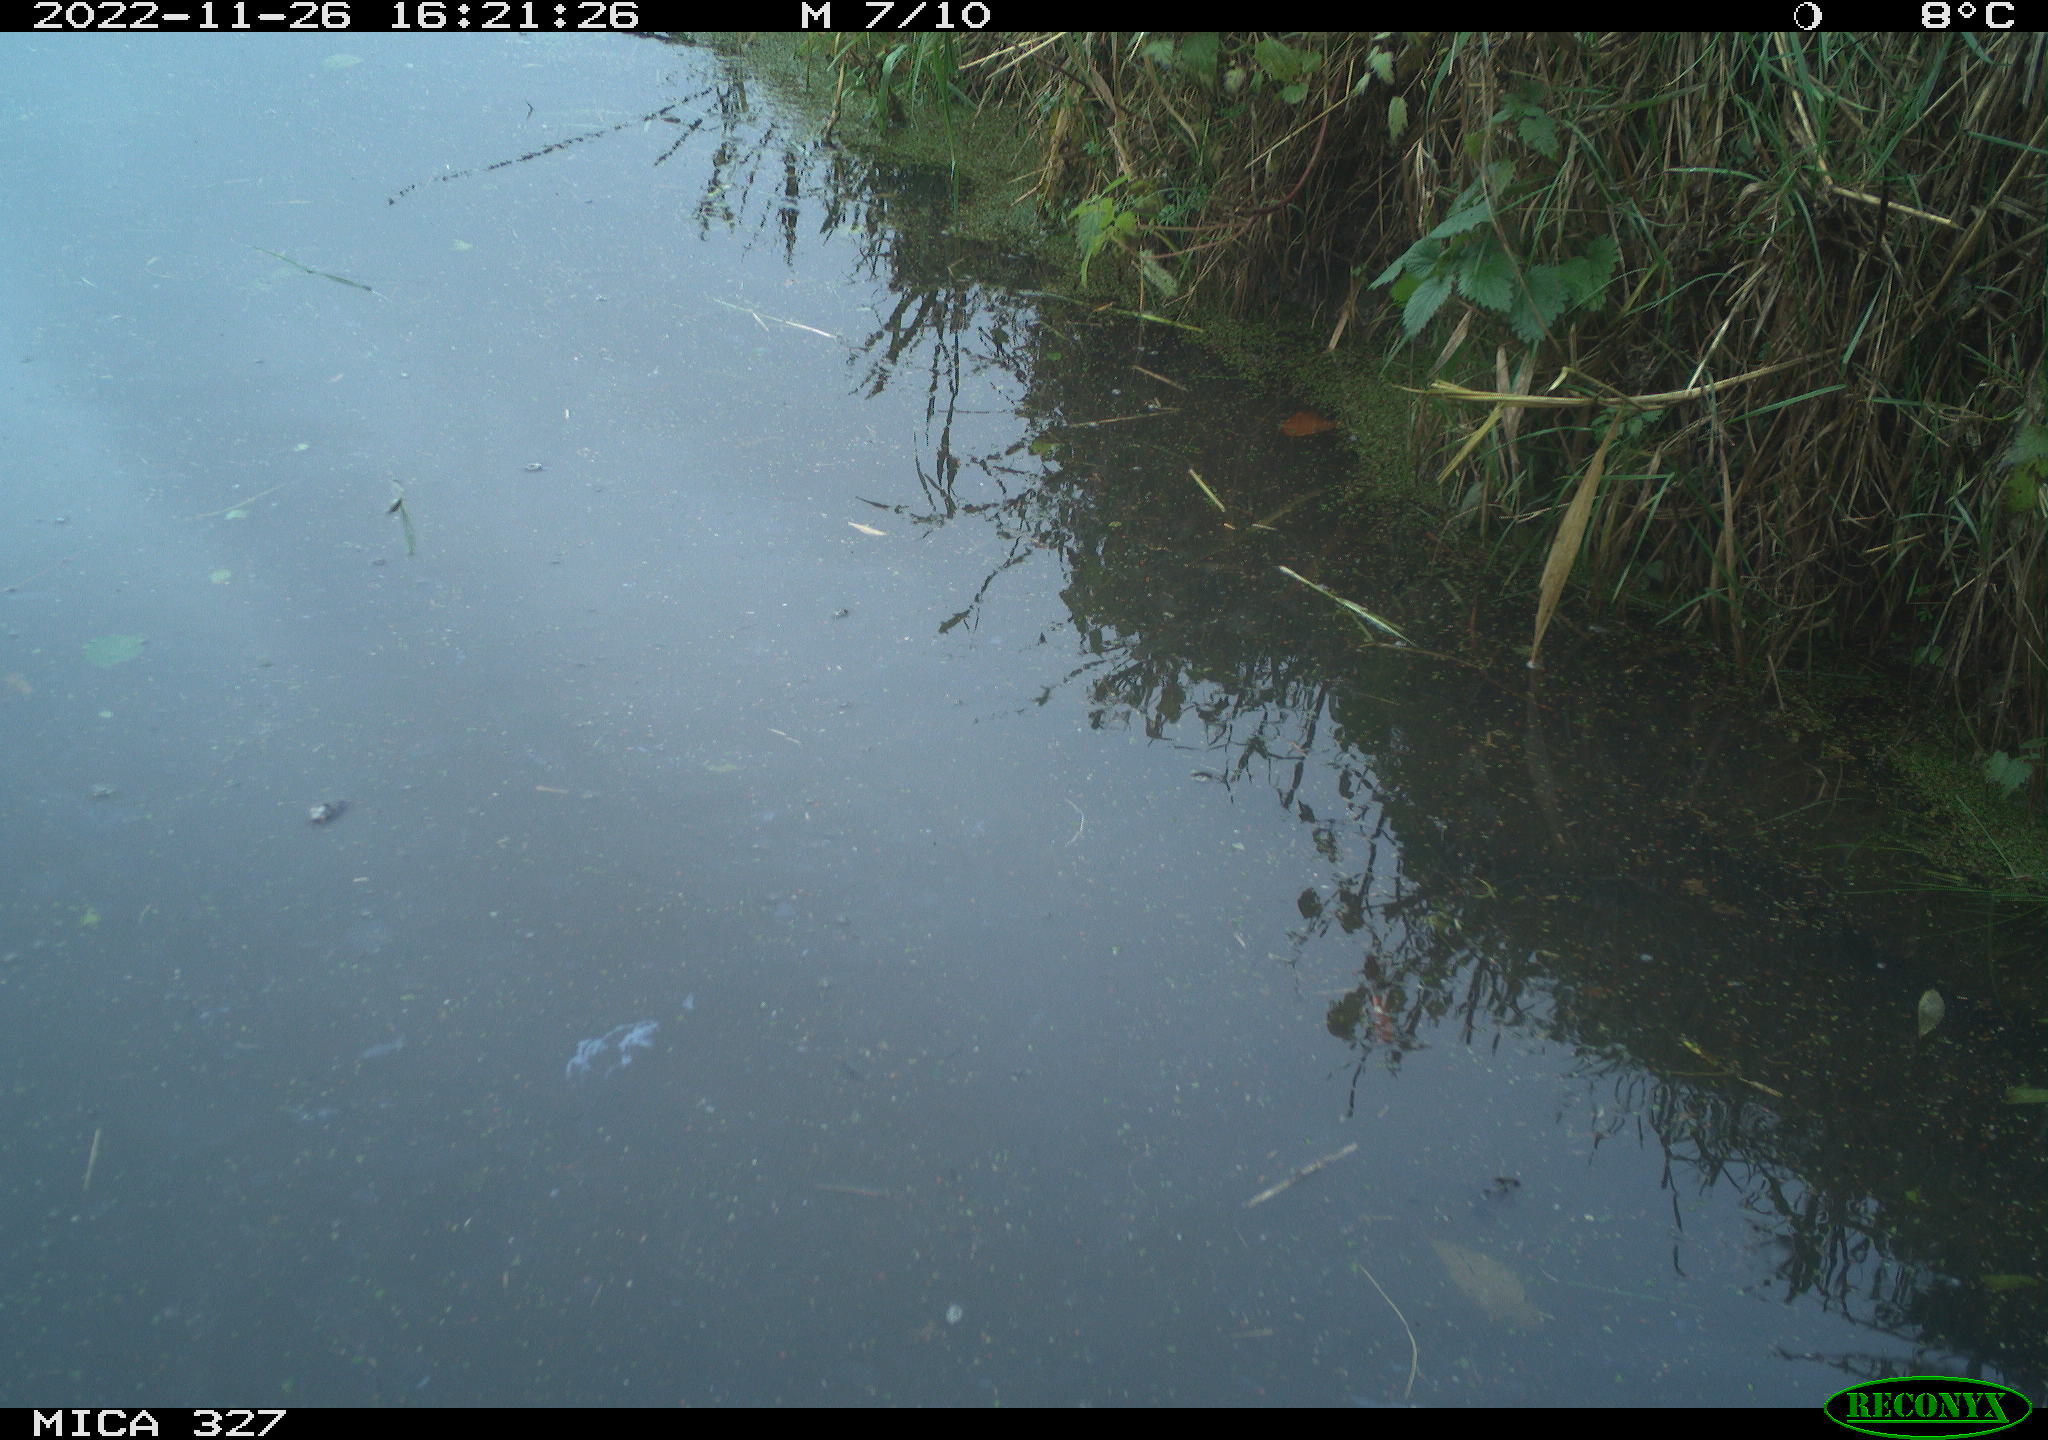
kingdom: Animalia
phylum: Chordata
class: Aves
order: Gruiformes
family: Rallidae
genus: Gallinula
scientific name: Gallinula chloropus
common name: Common moorhen
